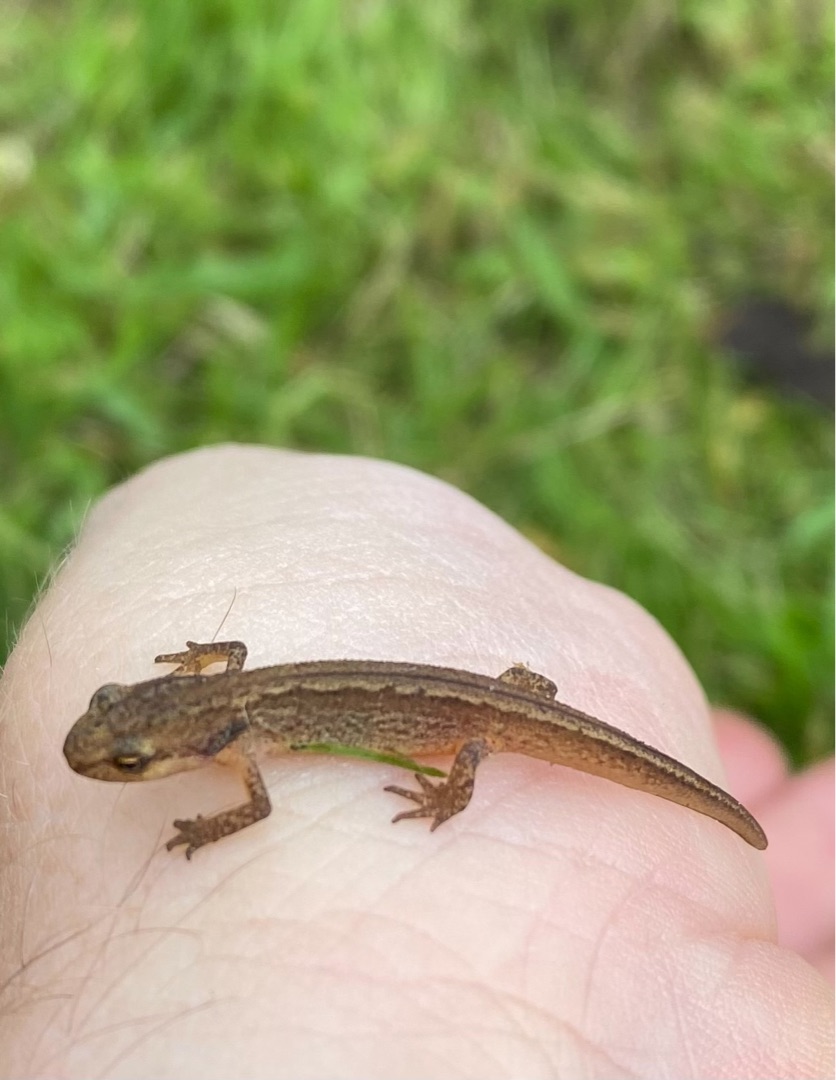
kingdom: Animalia
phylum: Chordata
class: Amphibia
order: Caudata
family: Salamandridae
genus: Lissotriton
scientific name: Lissotriton vulgaris
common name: Lille vandsalamander
